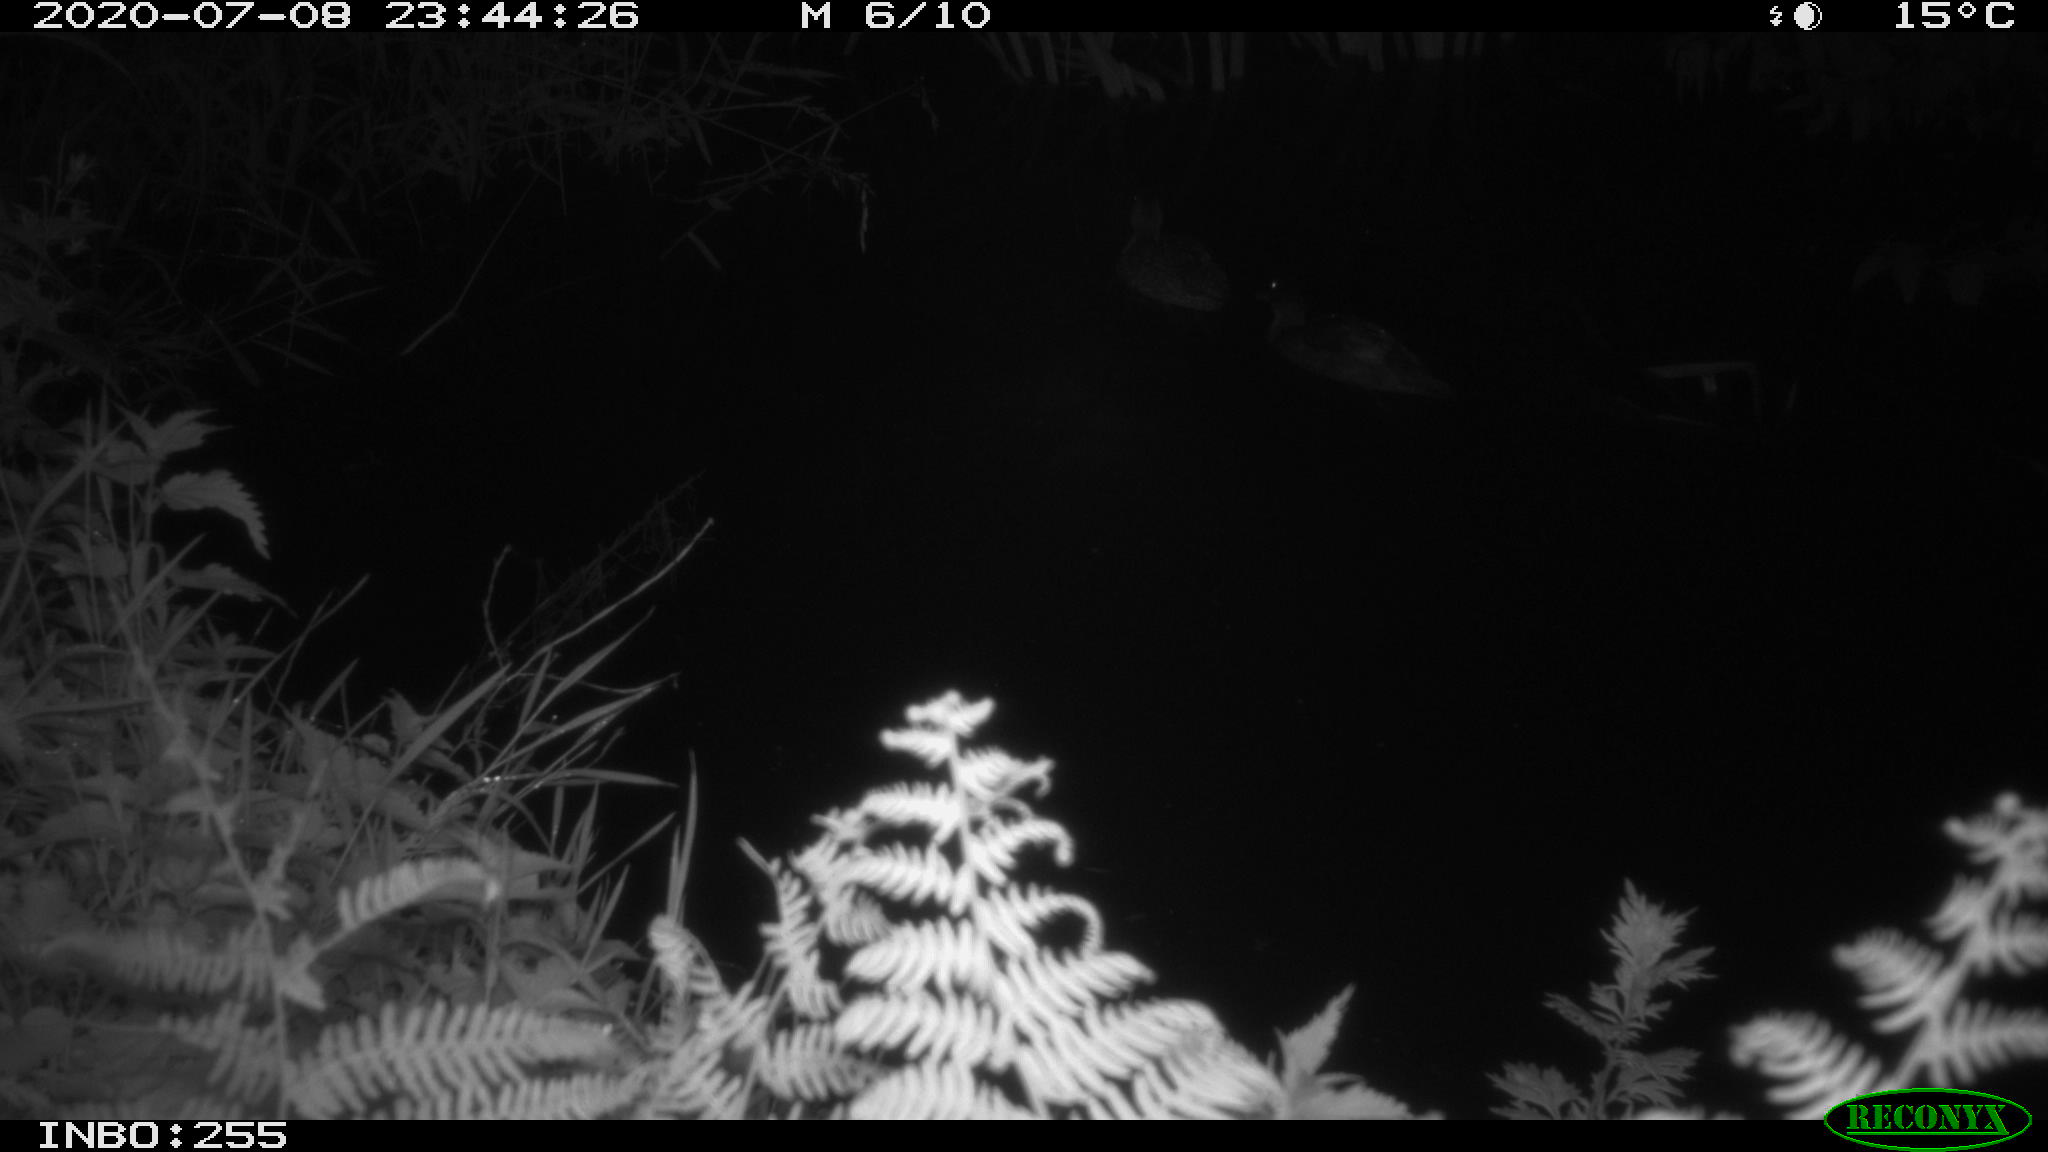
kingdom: Animalia
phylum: Chordata
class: Aves
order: Anseriformes
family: Anatidae
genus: Anas
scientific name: Anas platyrhynchos
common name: Mallard
